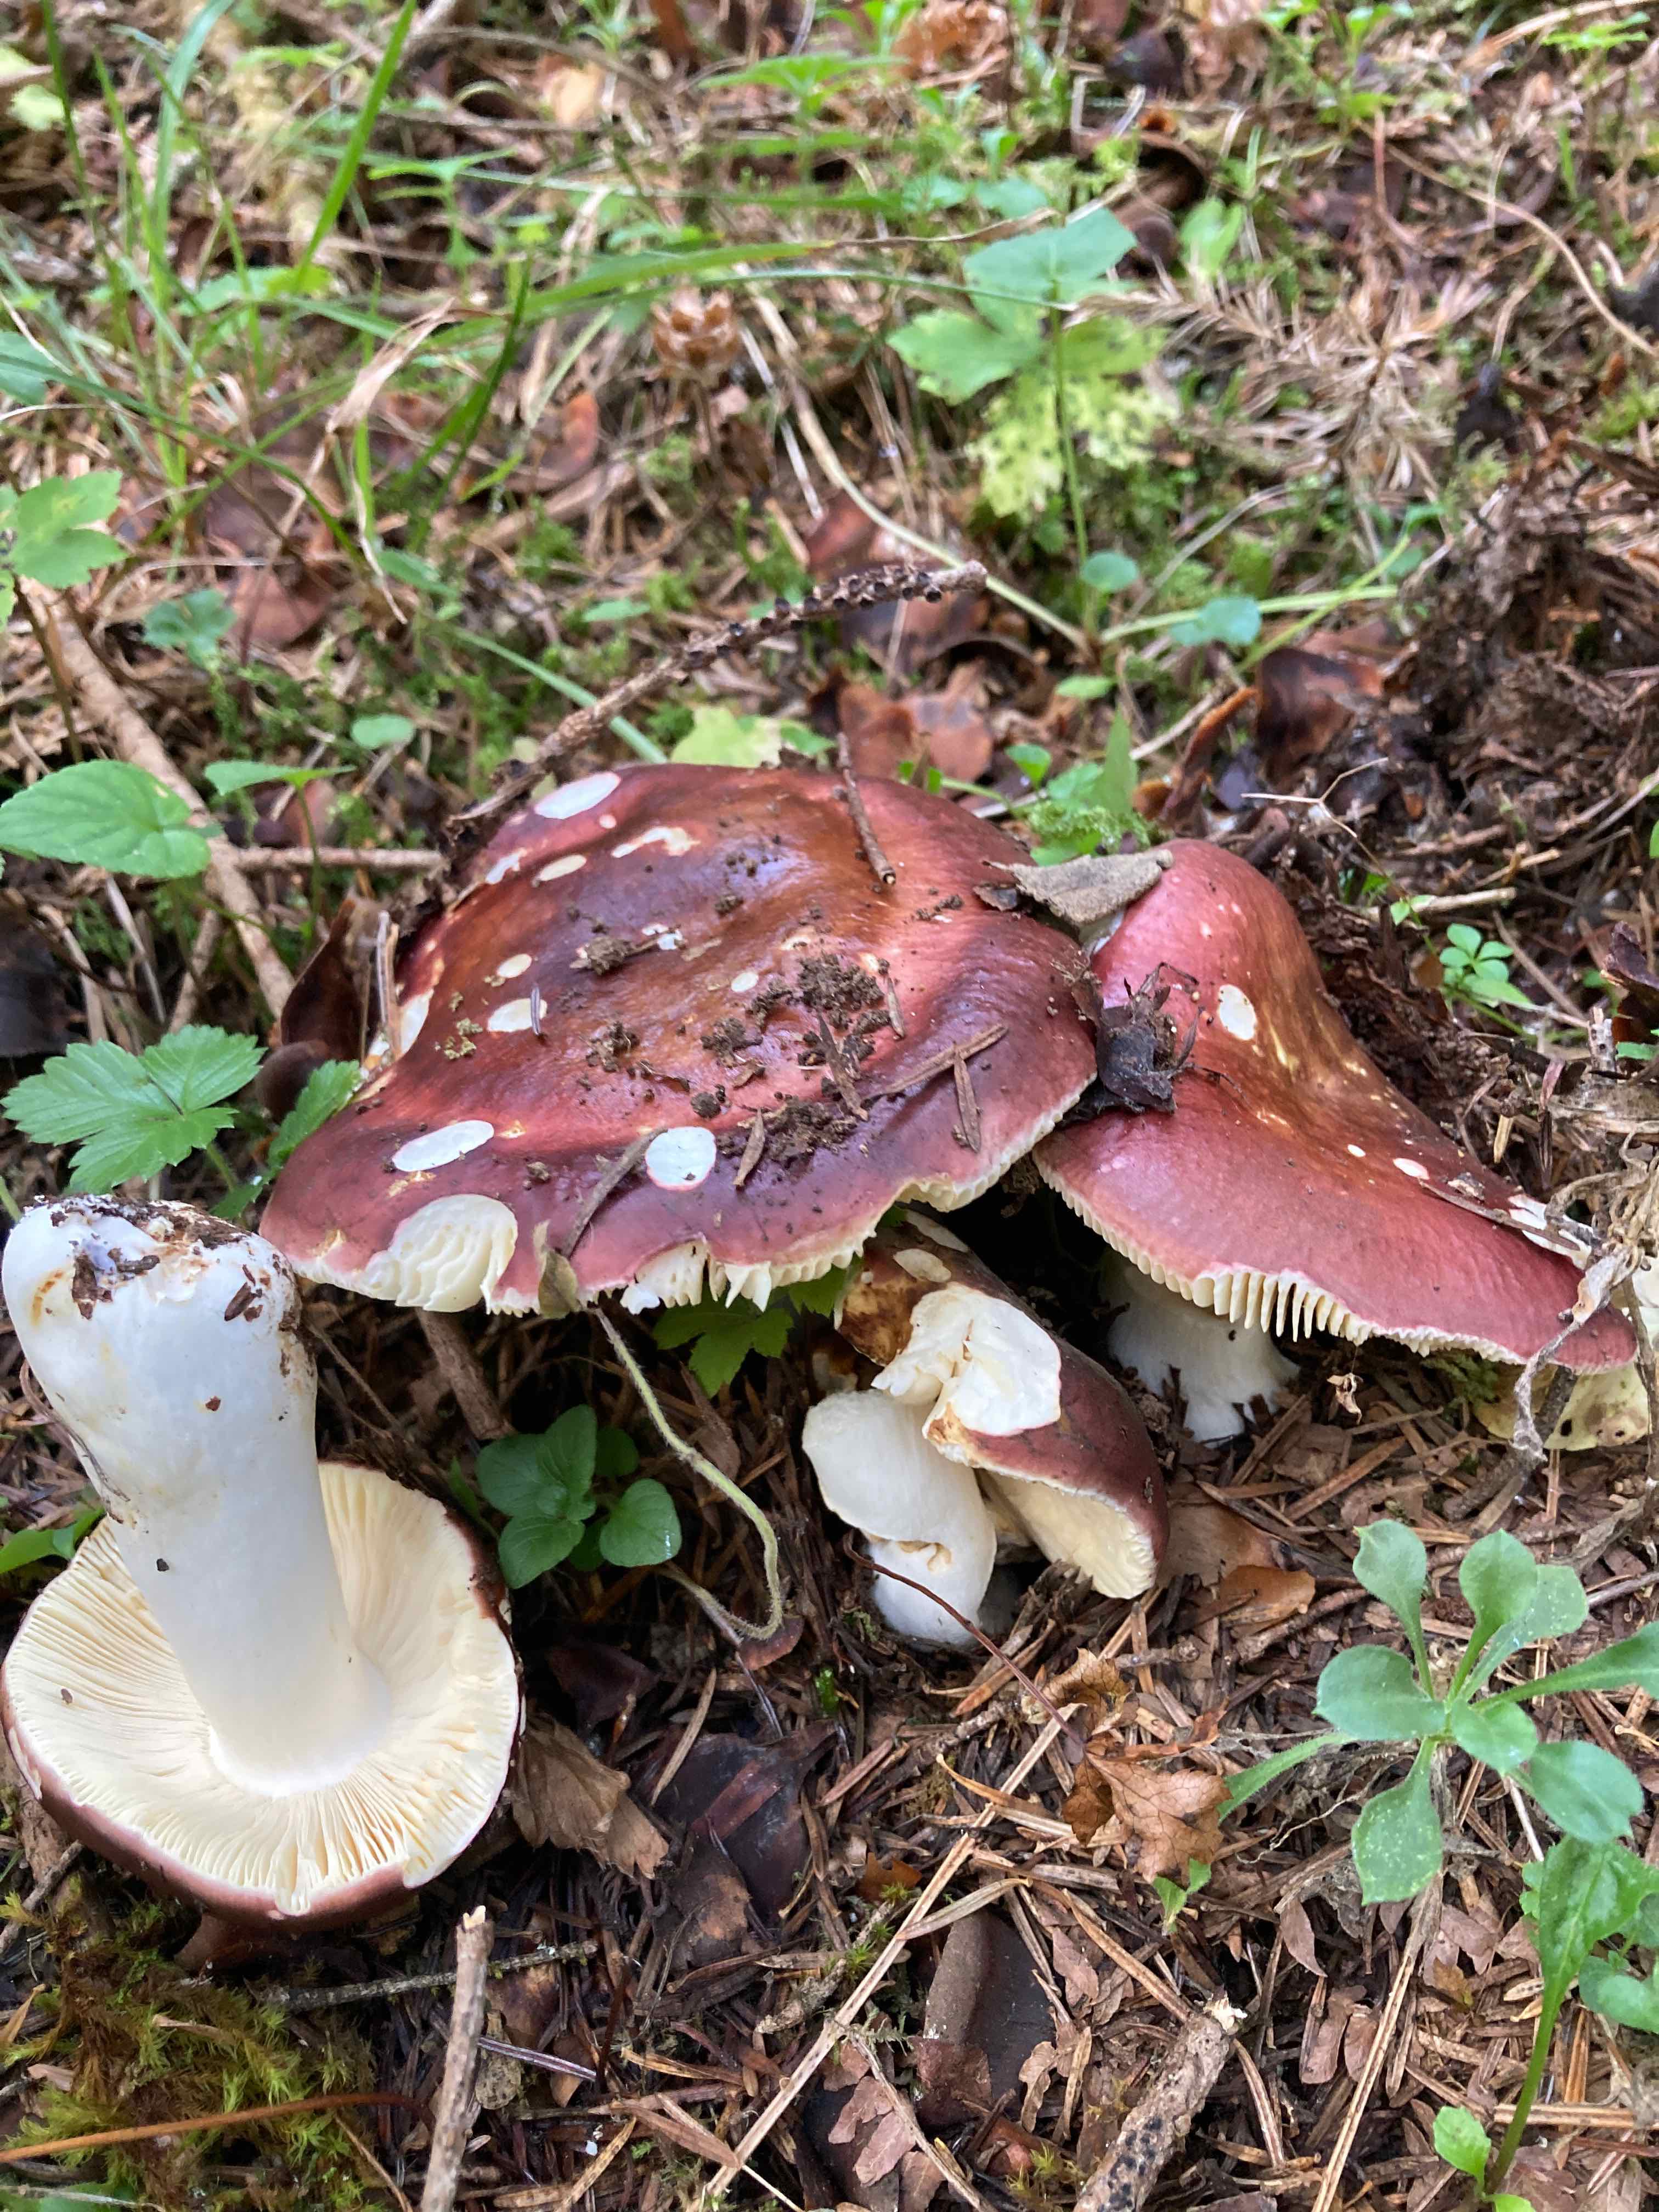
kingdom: Fungi
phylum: Basidiomycota
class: Agaricomycetes
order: Russulales
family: Russulaceae
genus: Russula
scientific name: Russula integra
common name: mandel-skørhat
